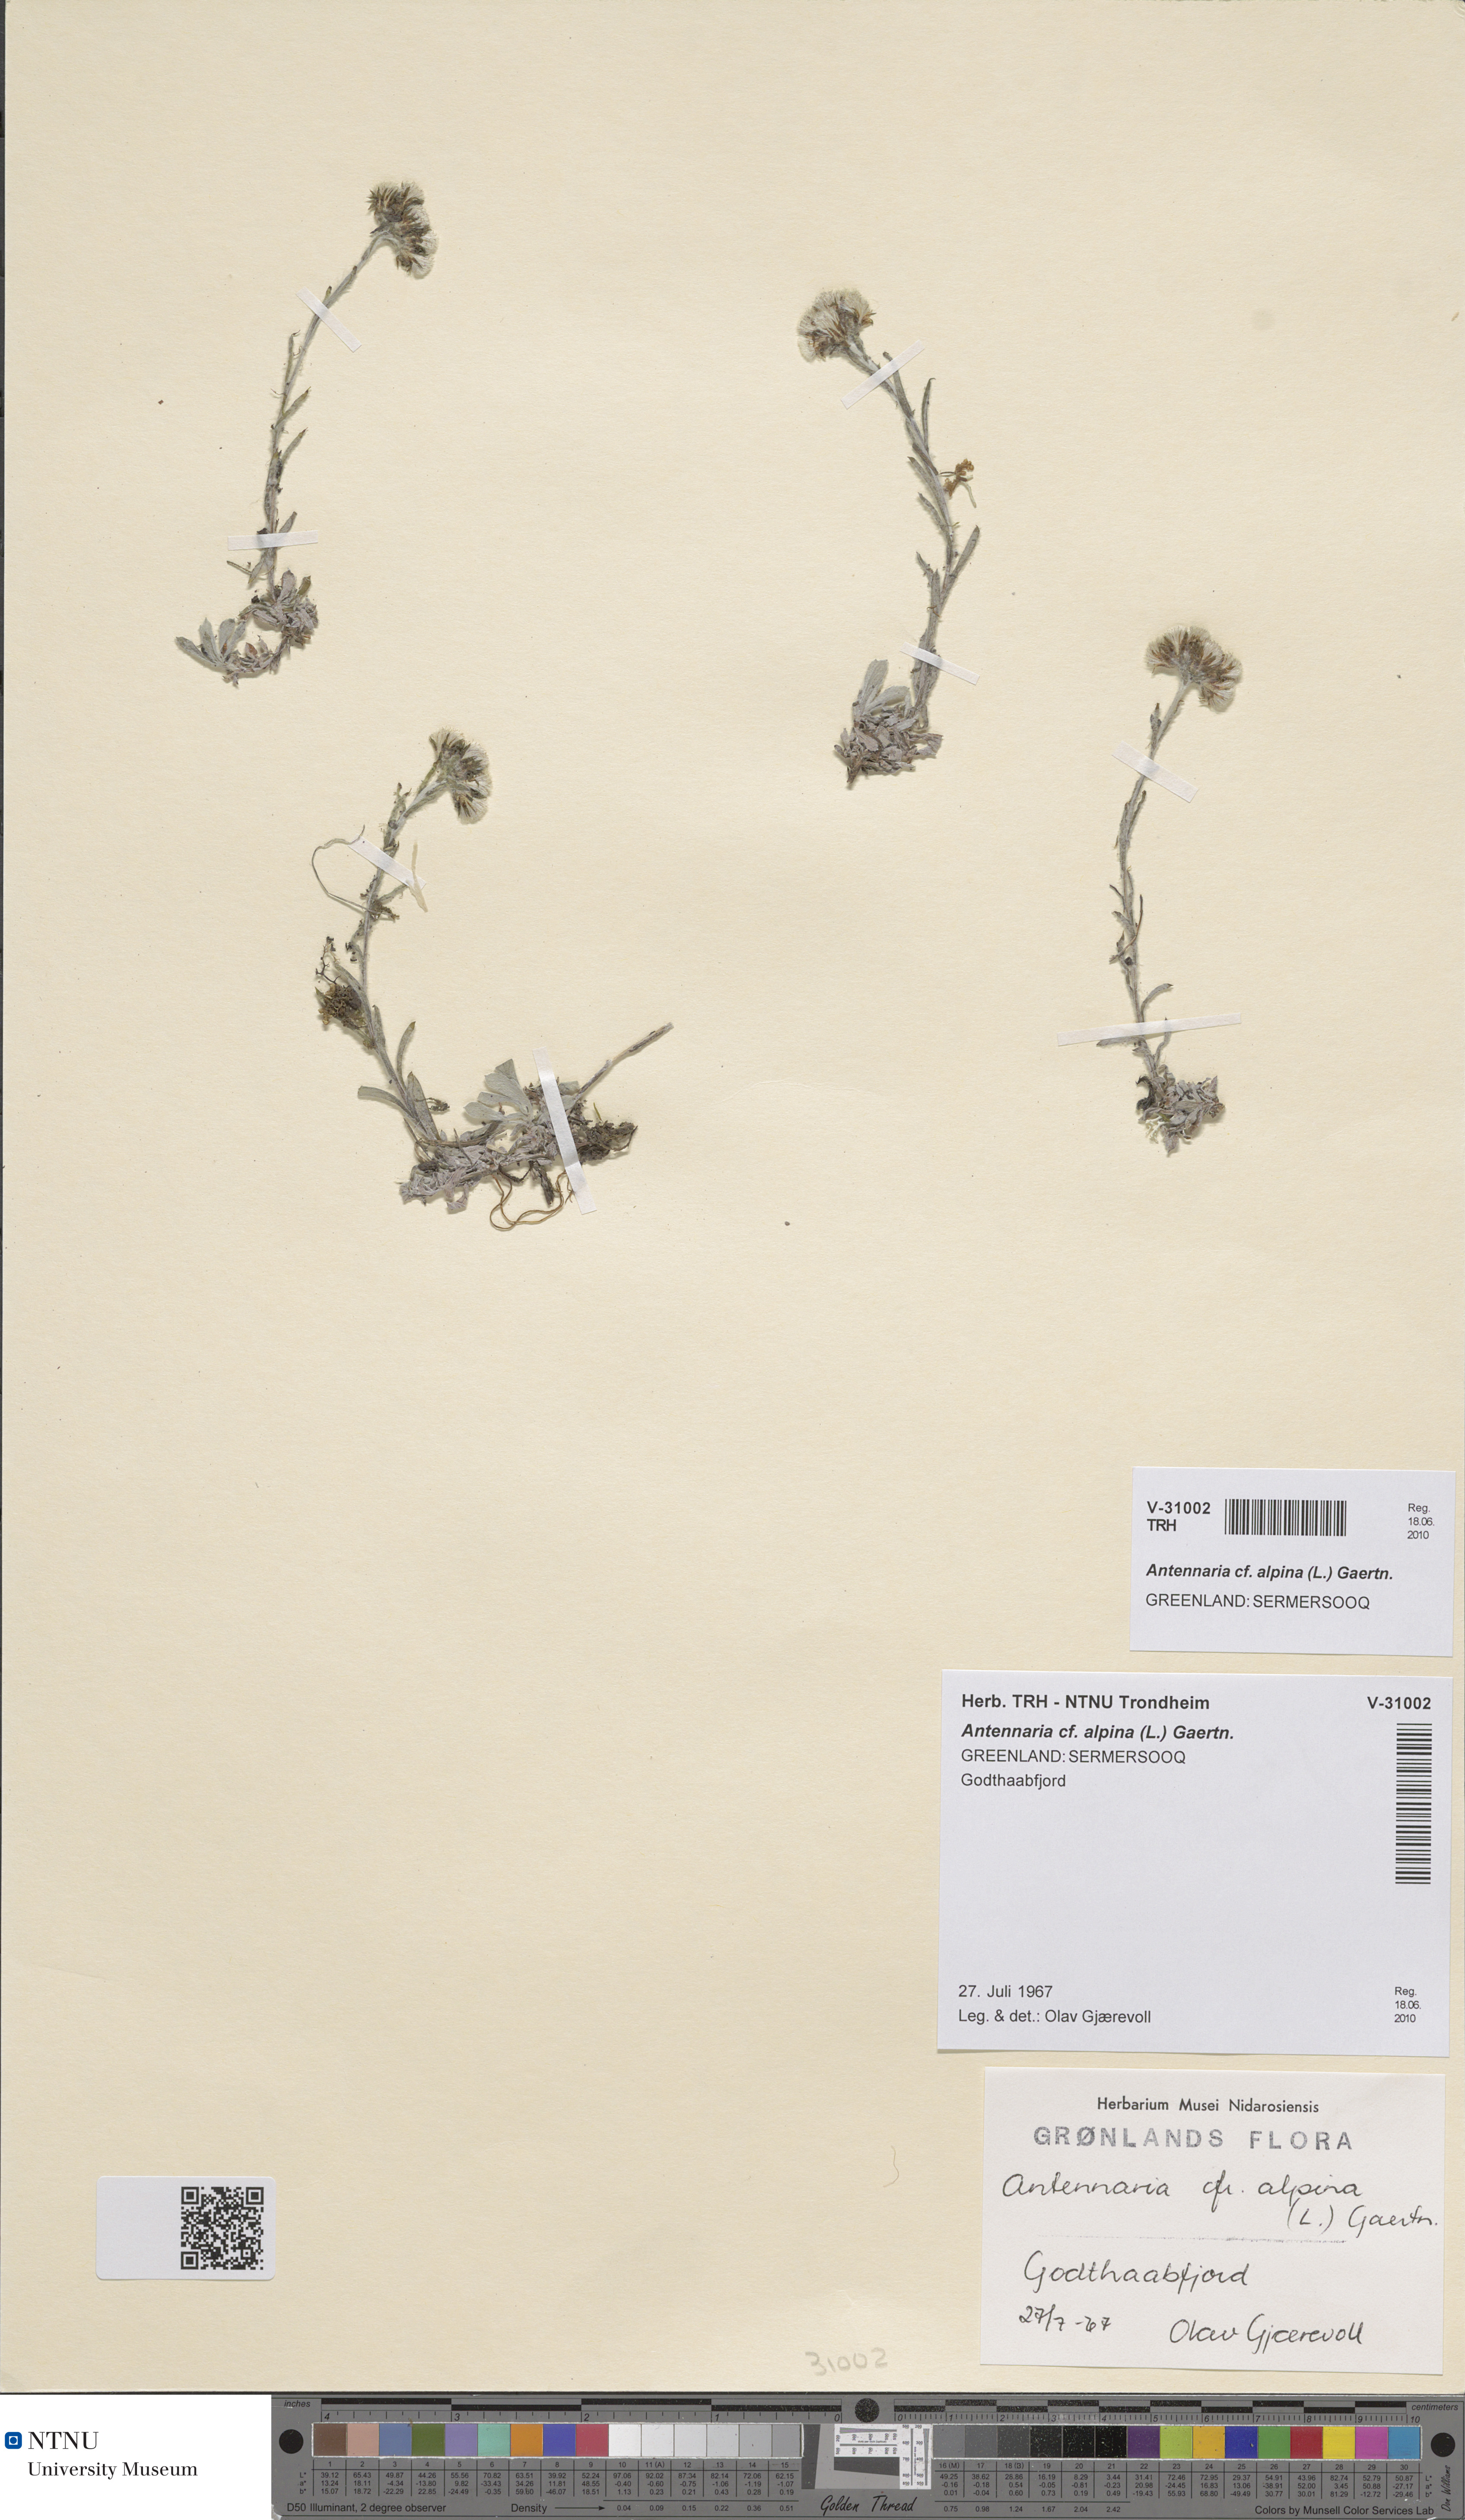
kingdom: Plantae
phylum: Tracheophyta
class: Magnoliopsida
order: Asterales
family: Asteraceae
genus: Antennaria
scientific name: Antennaria alpina
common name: Alpine pussytoes
